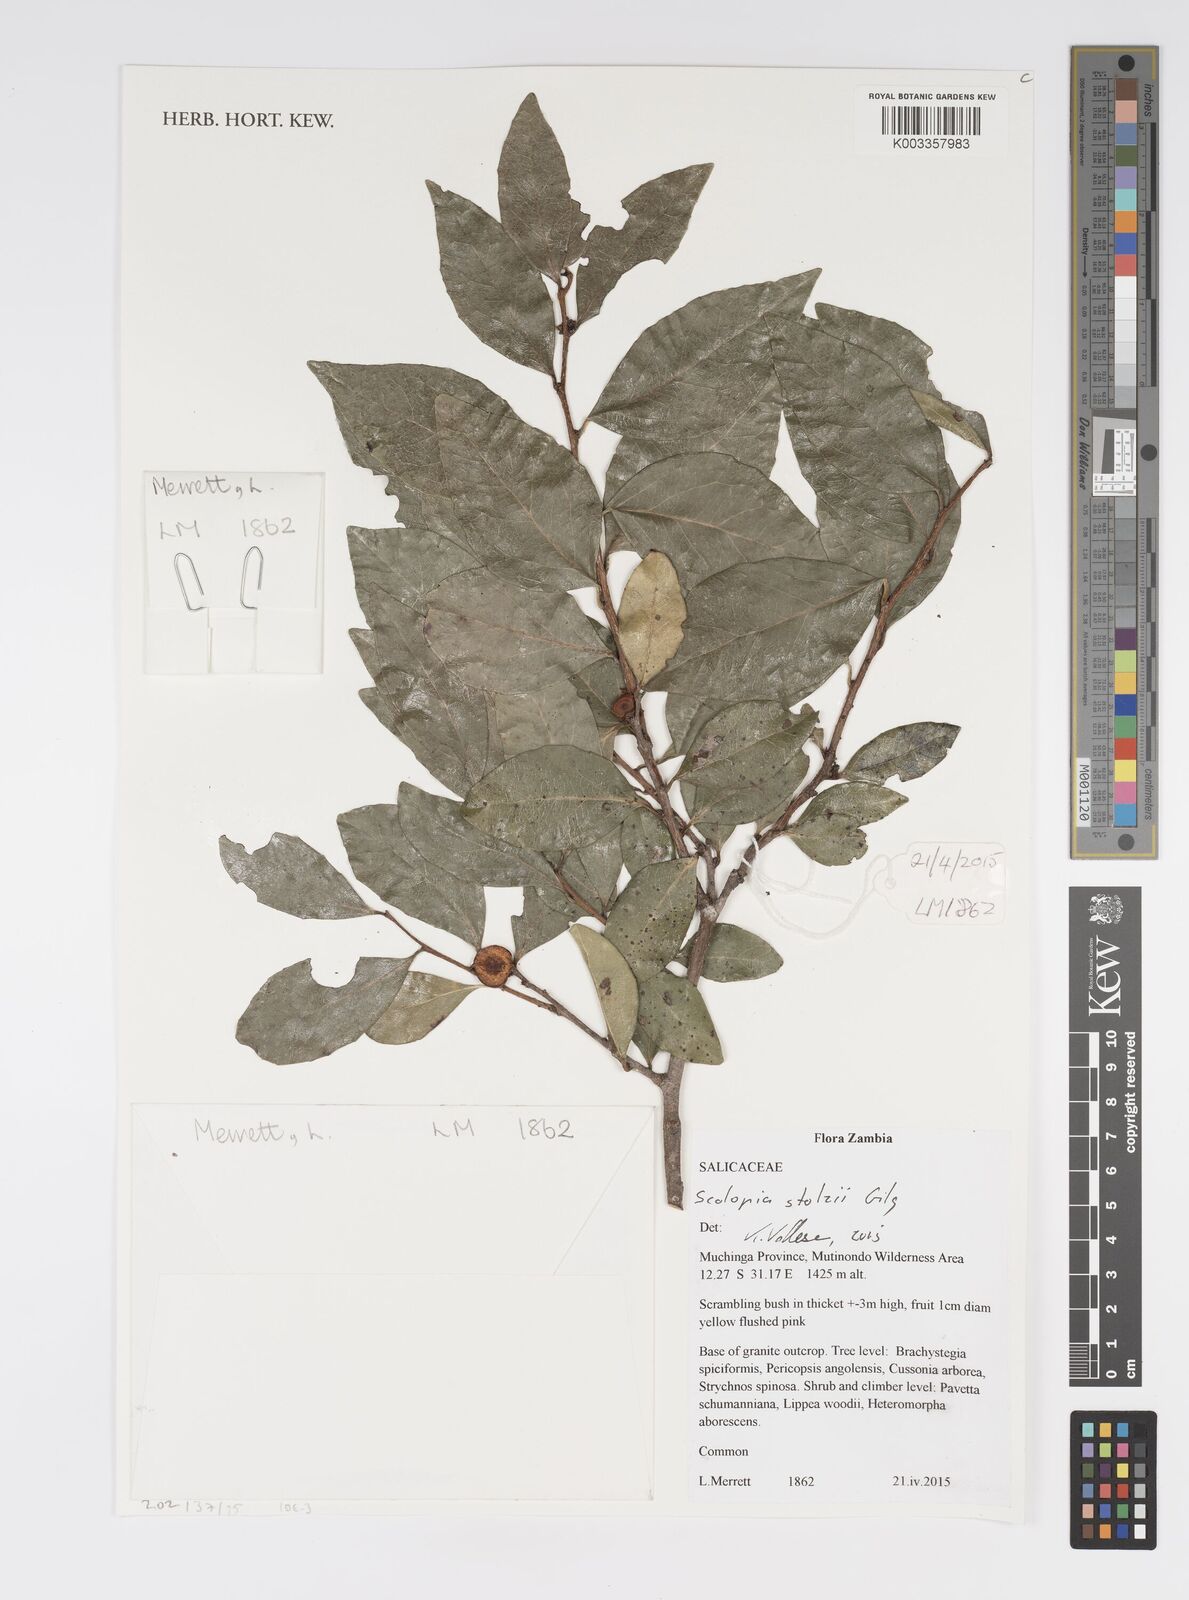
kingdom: Plantae
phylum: Tracheophyta
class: Magnoliopsida
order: Malpighiales
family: Salicaceae
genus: Scolopia
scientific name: Scolopia stolzii
